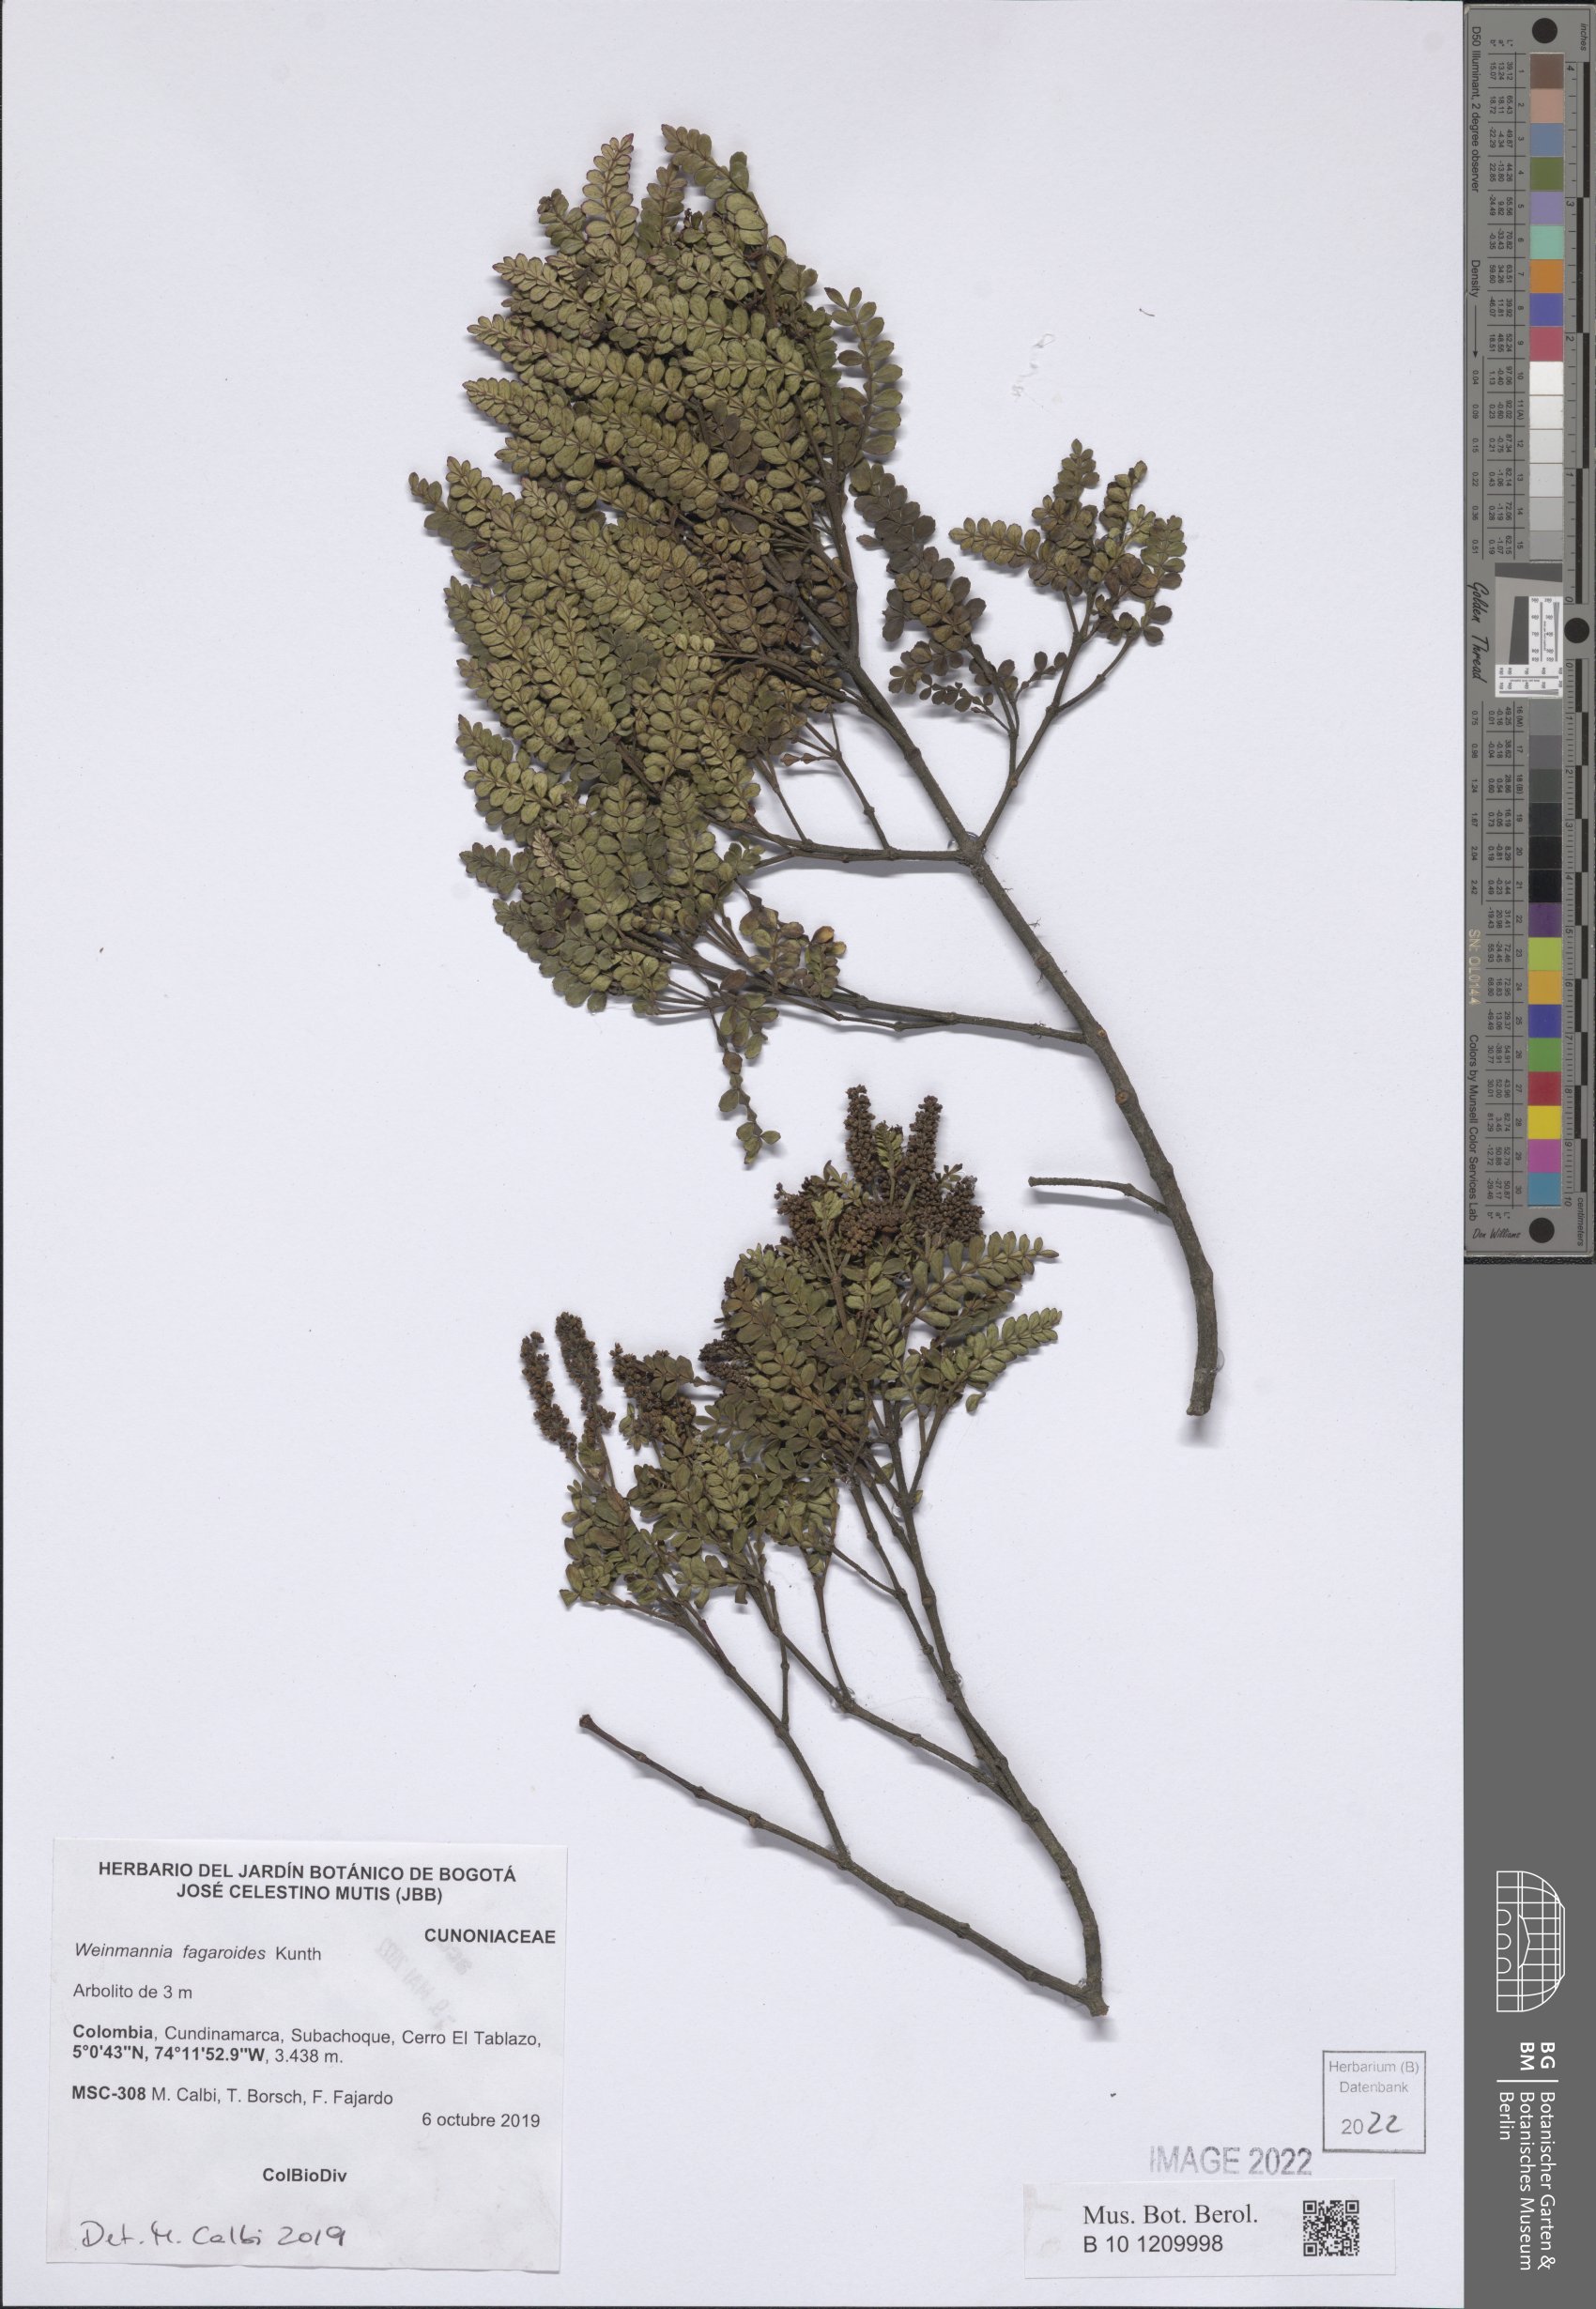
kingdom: Plantae
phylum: Tracheophyta
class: Magnoliopsida
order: Oxalidales
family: Cunoniaceae
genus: Weinmannia
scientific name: Weinmannia fagaroides
